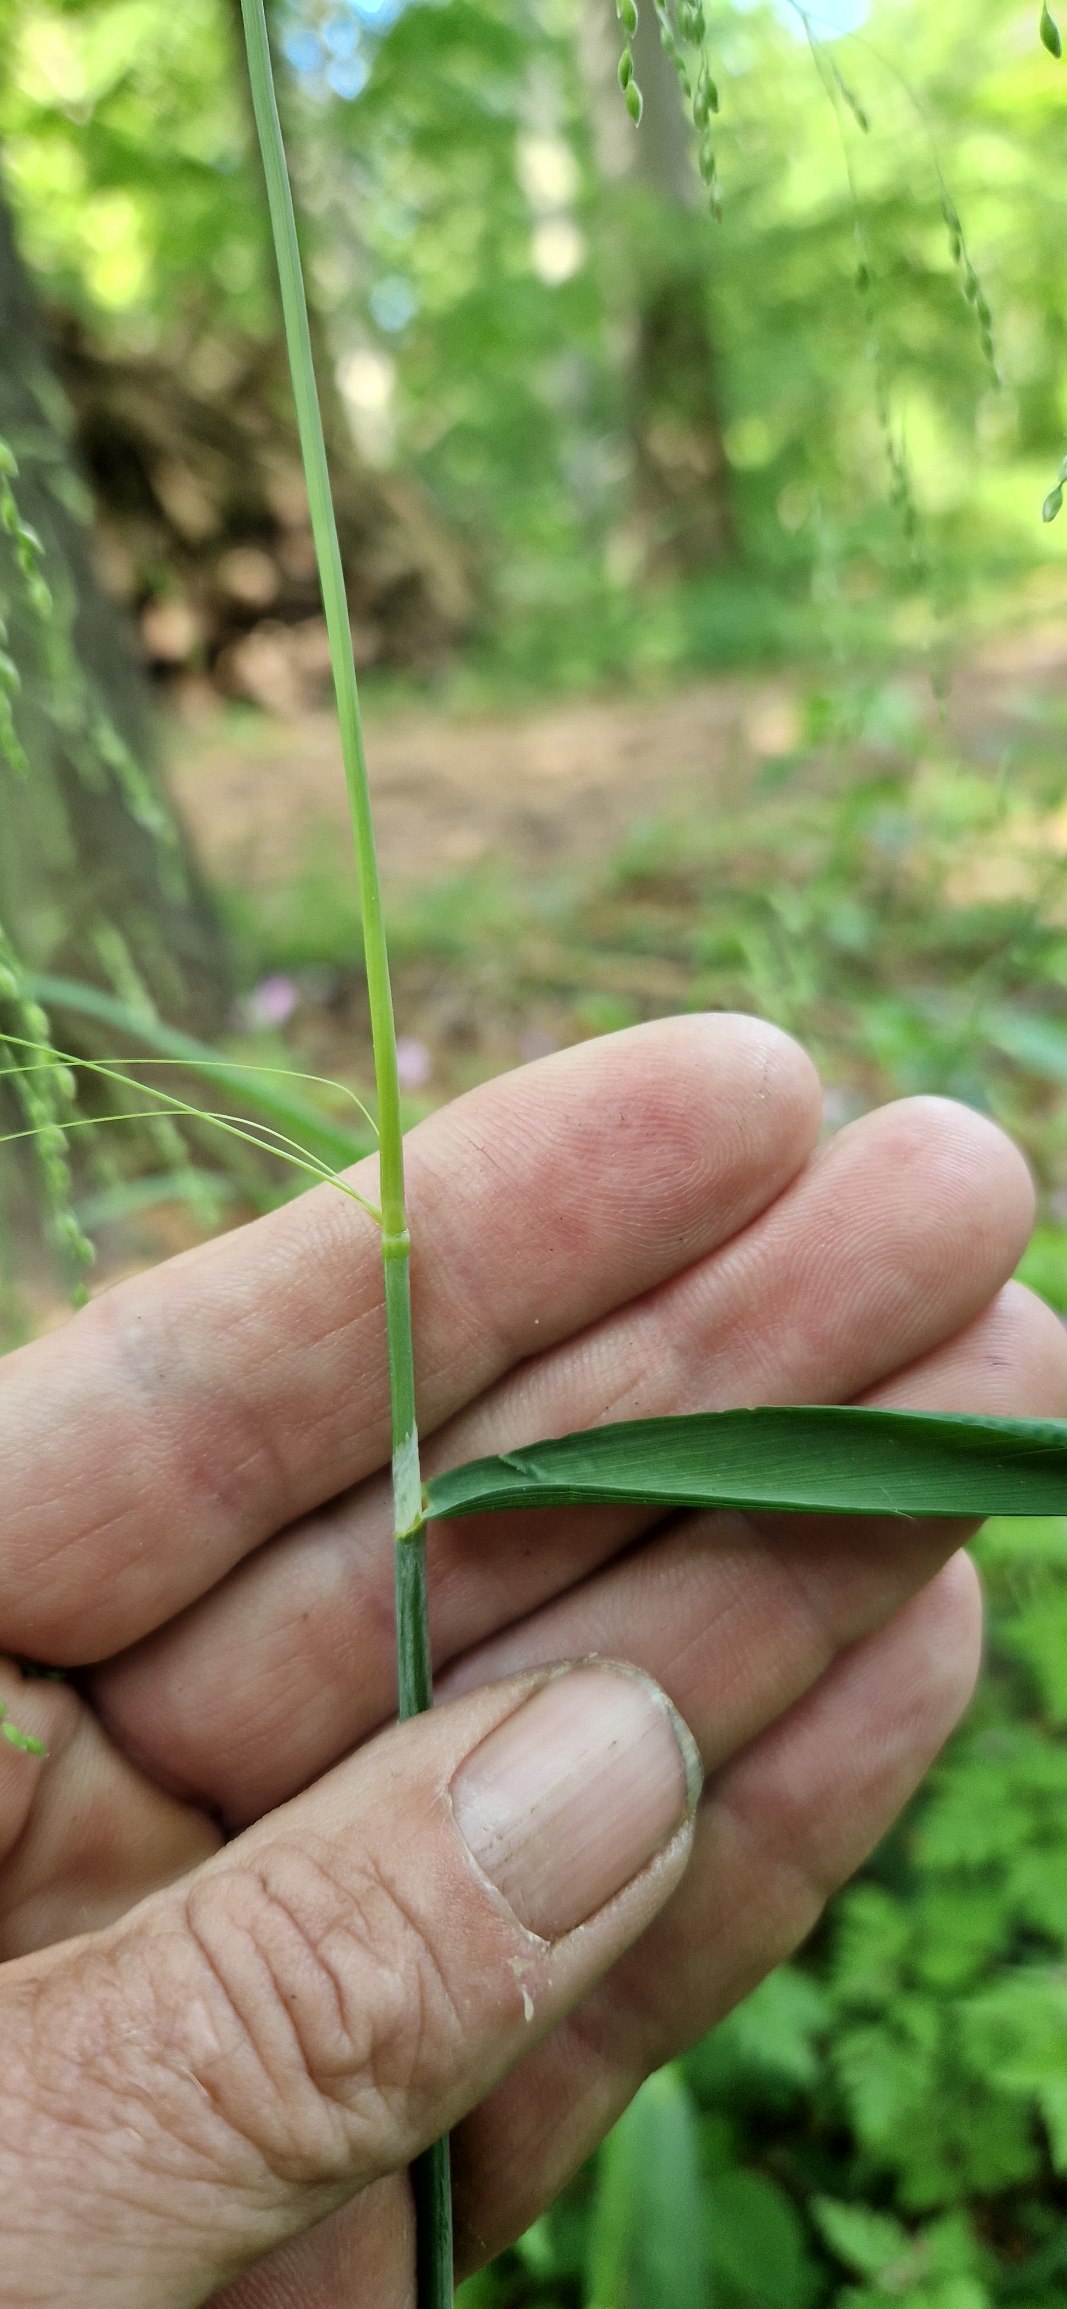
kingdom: Plantae
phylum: Tracheophyta
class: Liliopsida
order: Poales
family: Poaceae
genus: Milium
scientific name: Milium effusum
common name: Miliegræs
